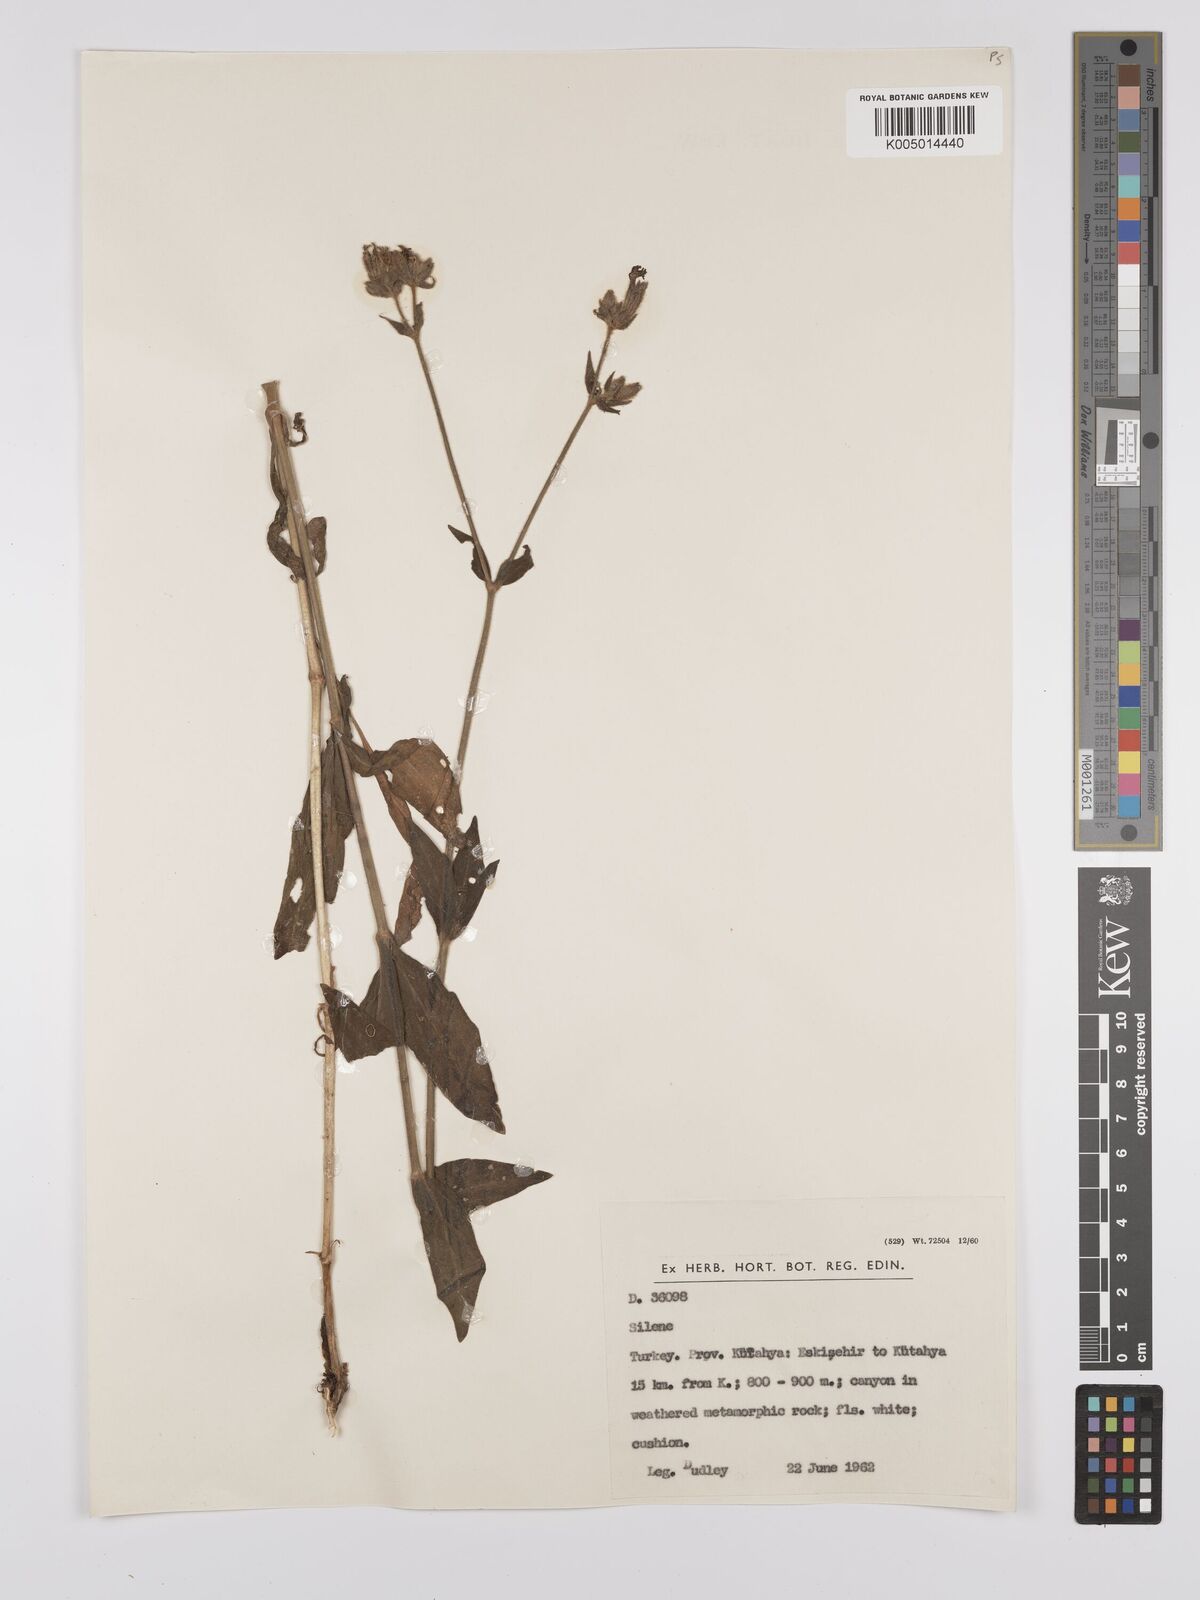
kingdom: Plantae
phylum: Tracheophyta
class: Magnoliopsida
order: Caryophyllales
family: Caryophyllaceae
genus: Silene
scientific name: Silene
